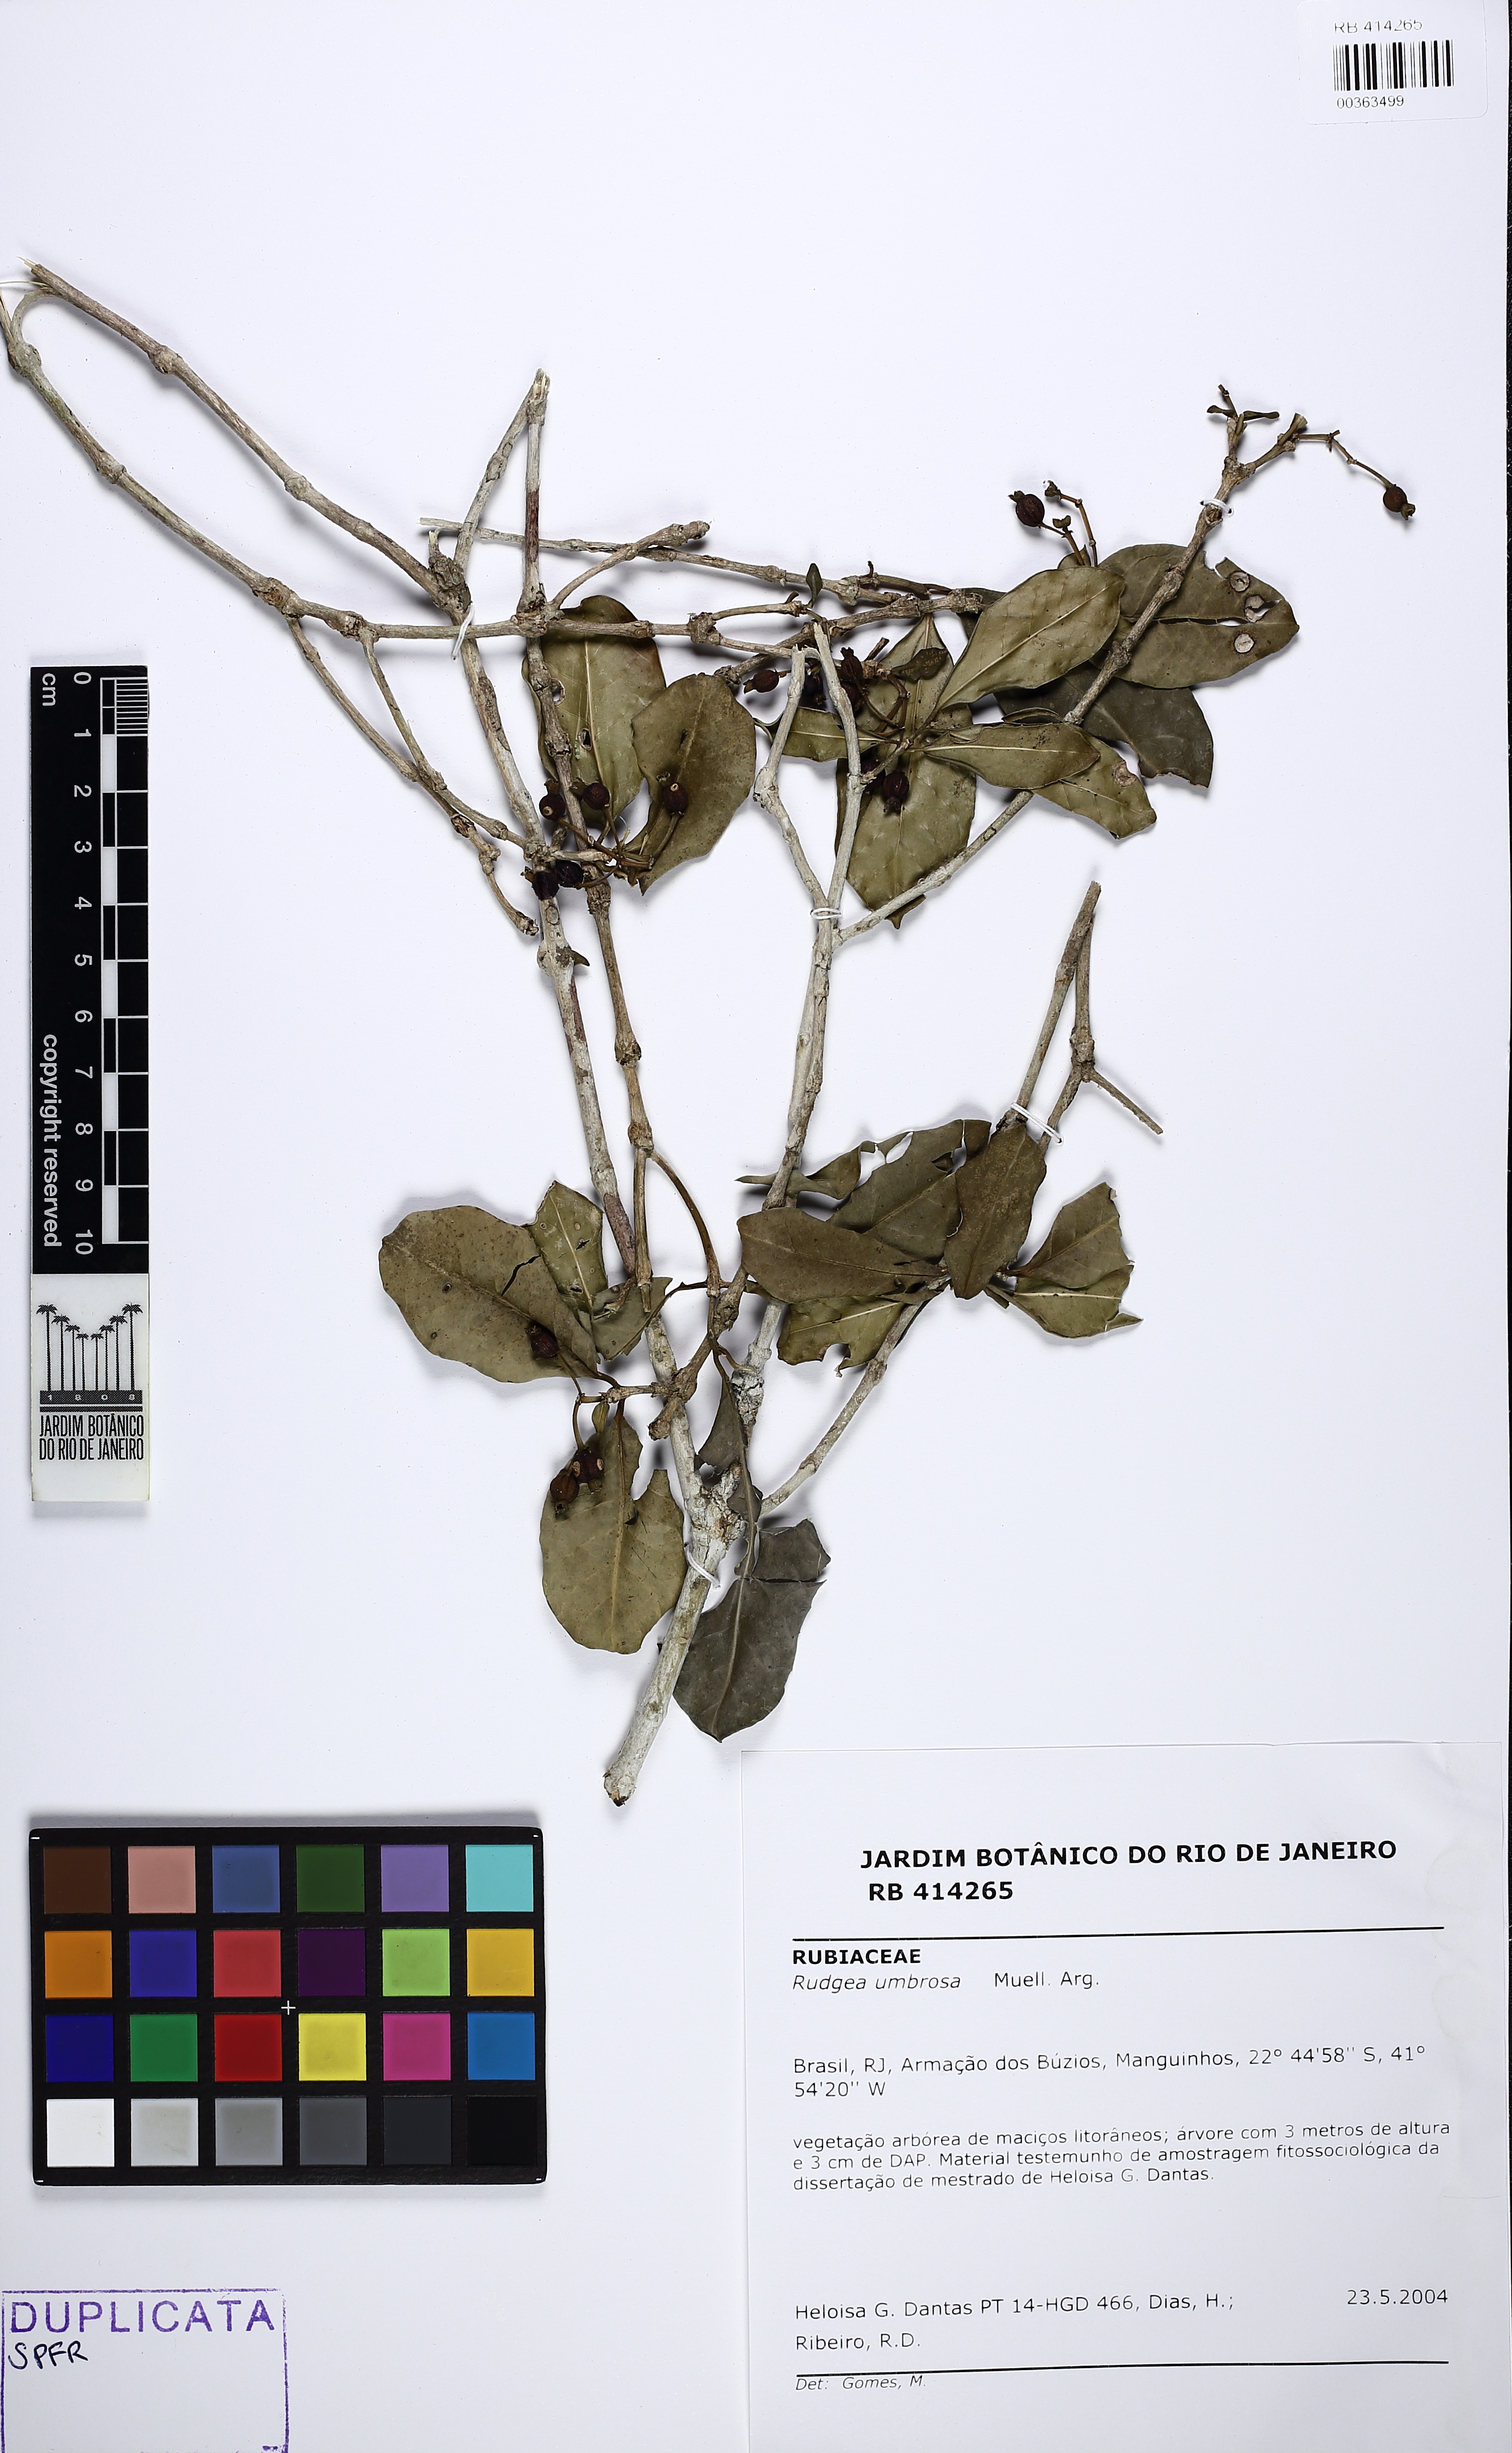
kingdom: Plantae
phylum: Tracheophyta
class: Magnoliopsida
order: Gentianales
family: Rubiaceae
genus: Rudgea
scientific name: Rudgea umbrosa
